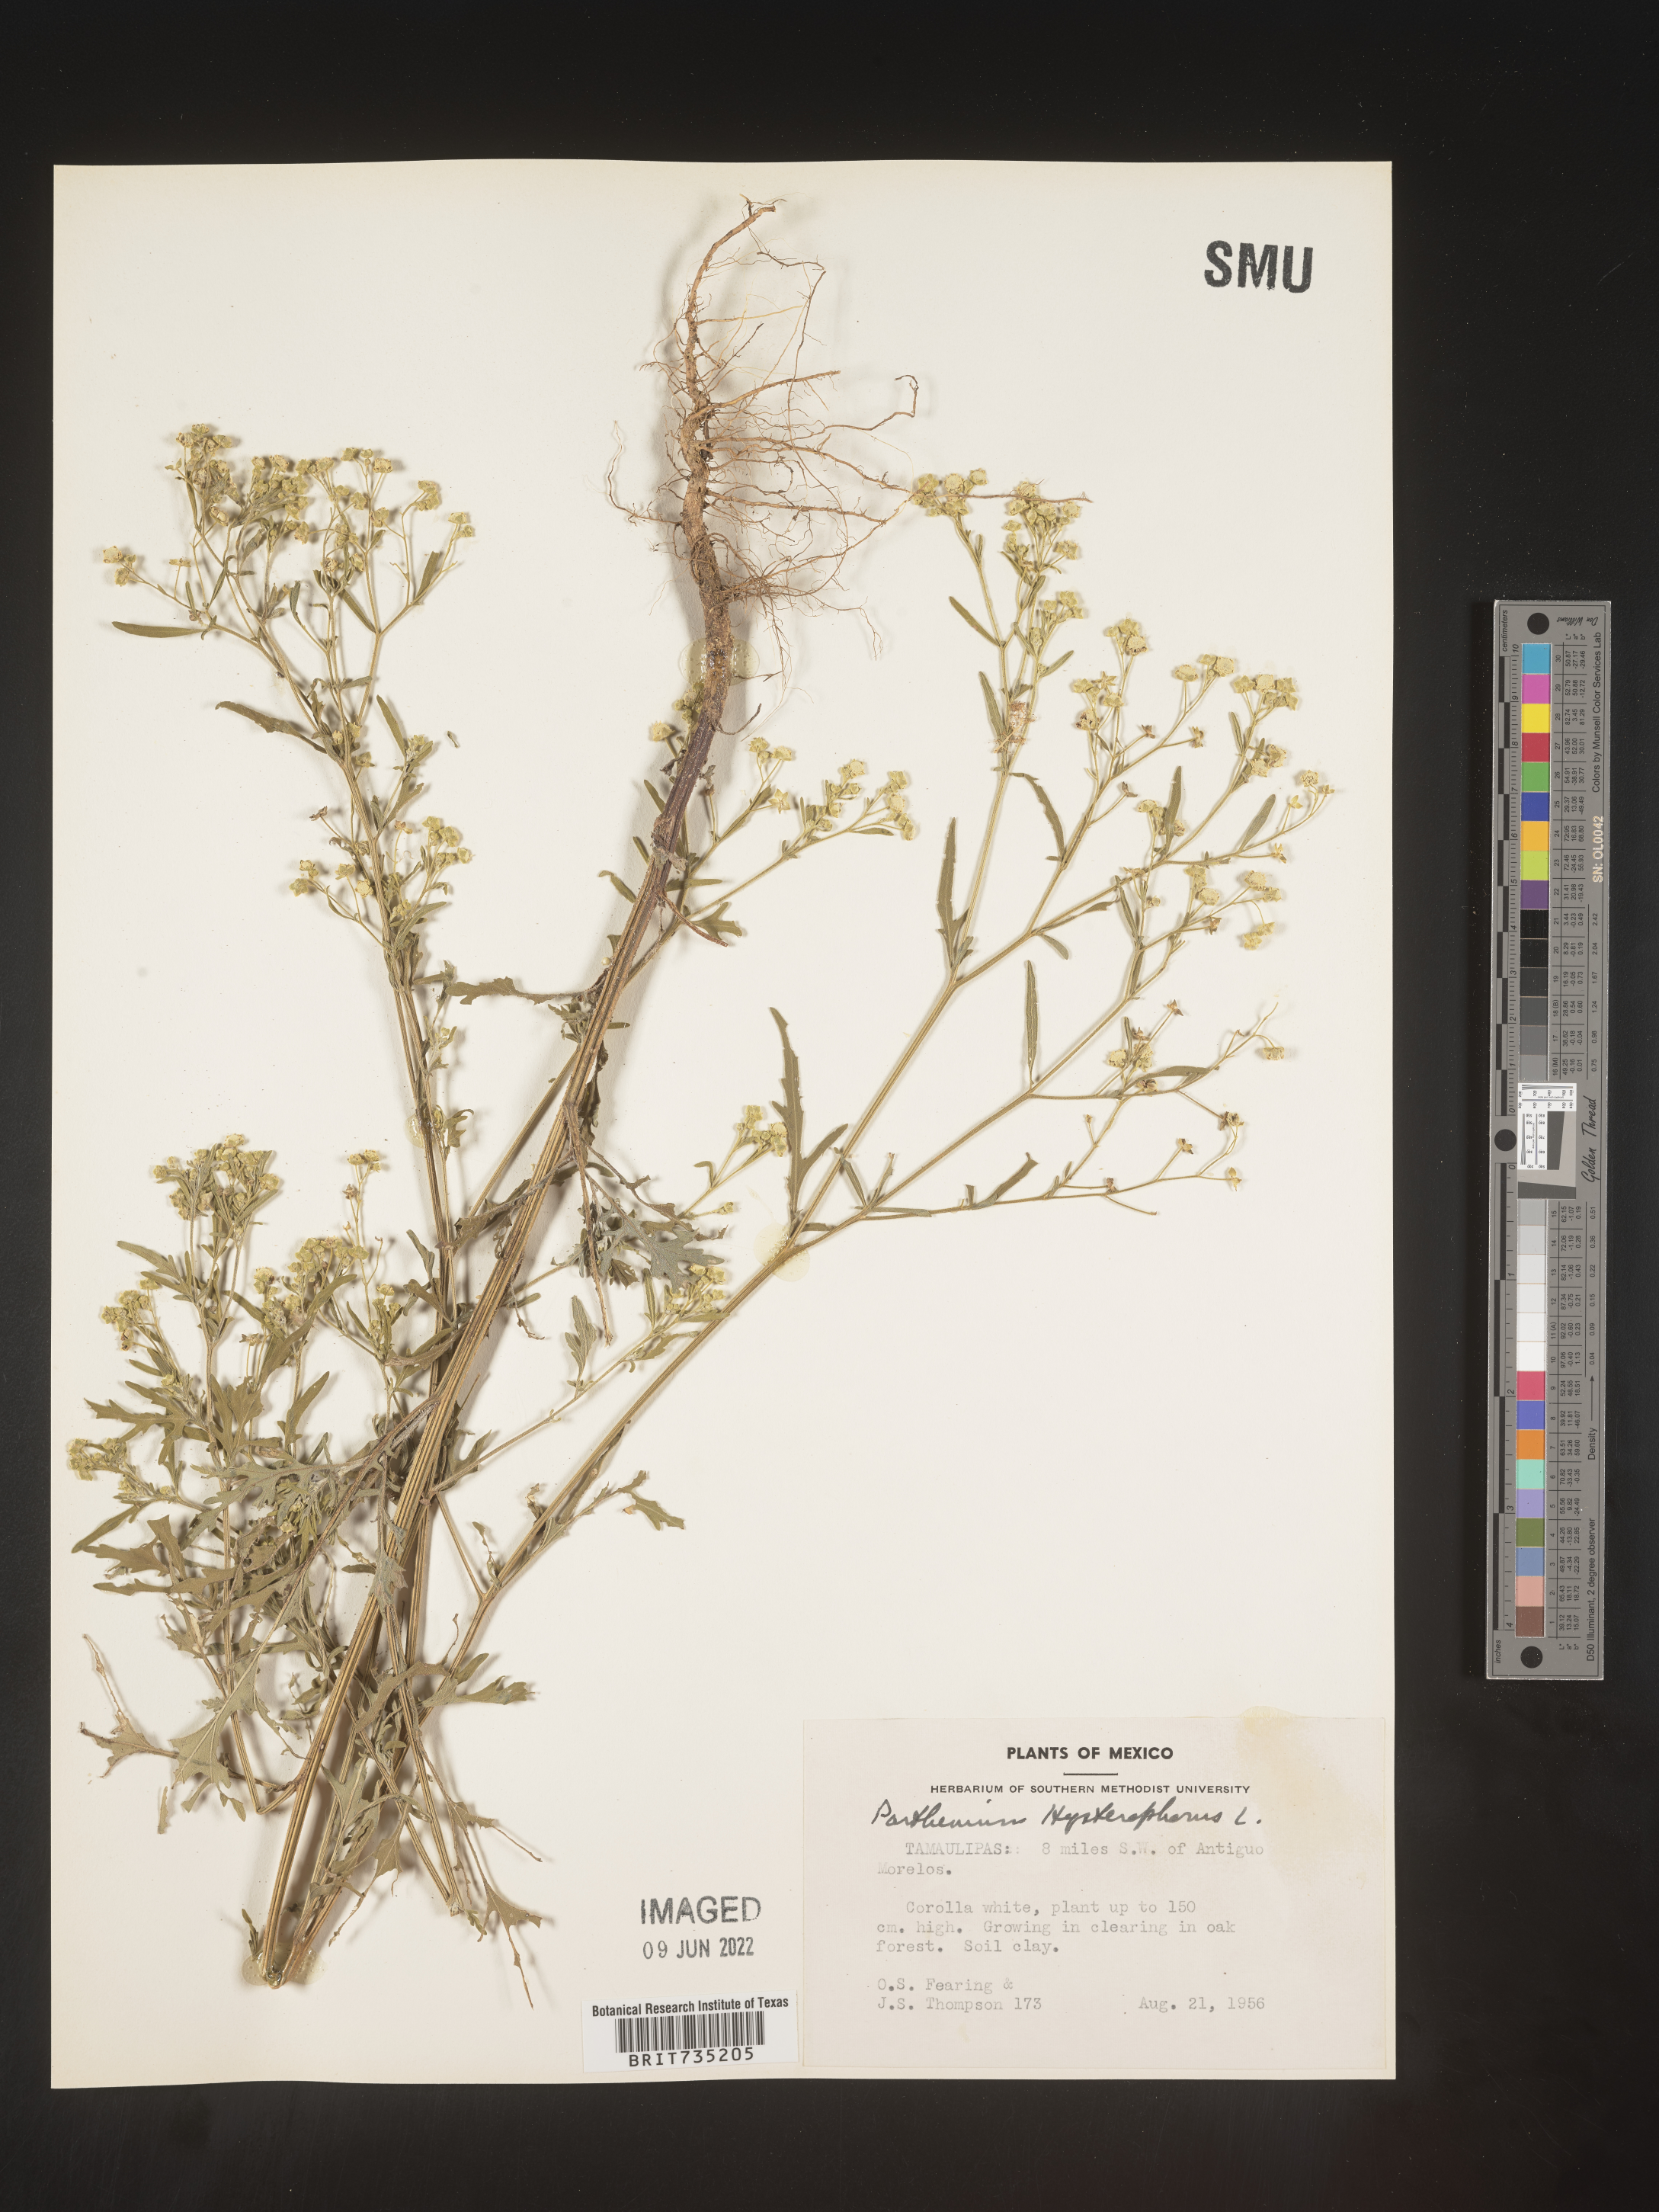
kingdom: Plantae
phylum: Tracheophyta
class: Magnoliopsida
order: Asterales
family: Asteraceae
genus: Parthenium
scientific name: Parthenium hysterophorus
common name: Santa maria feverfew
